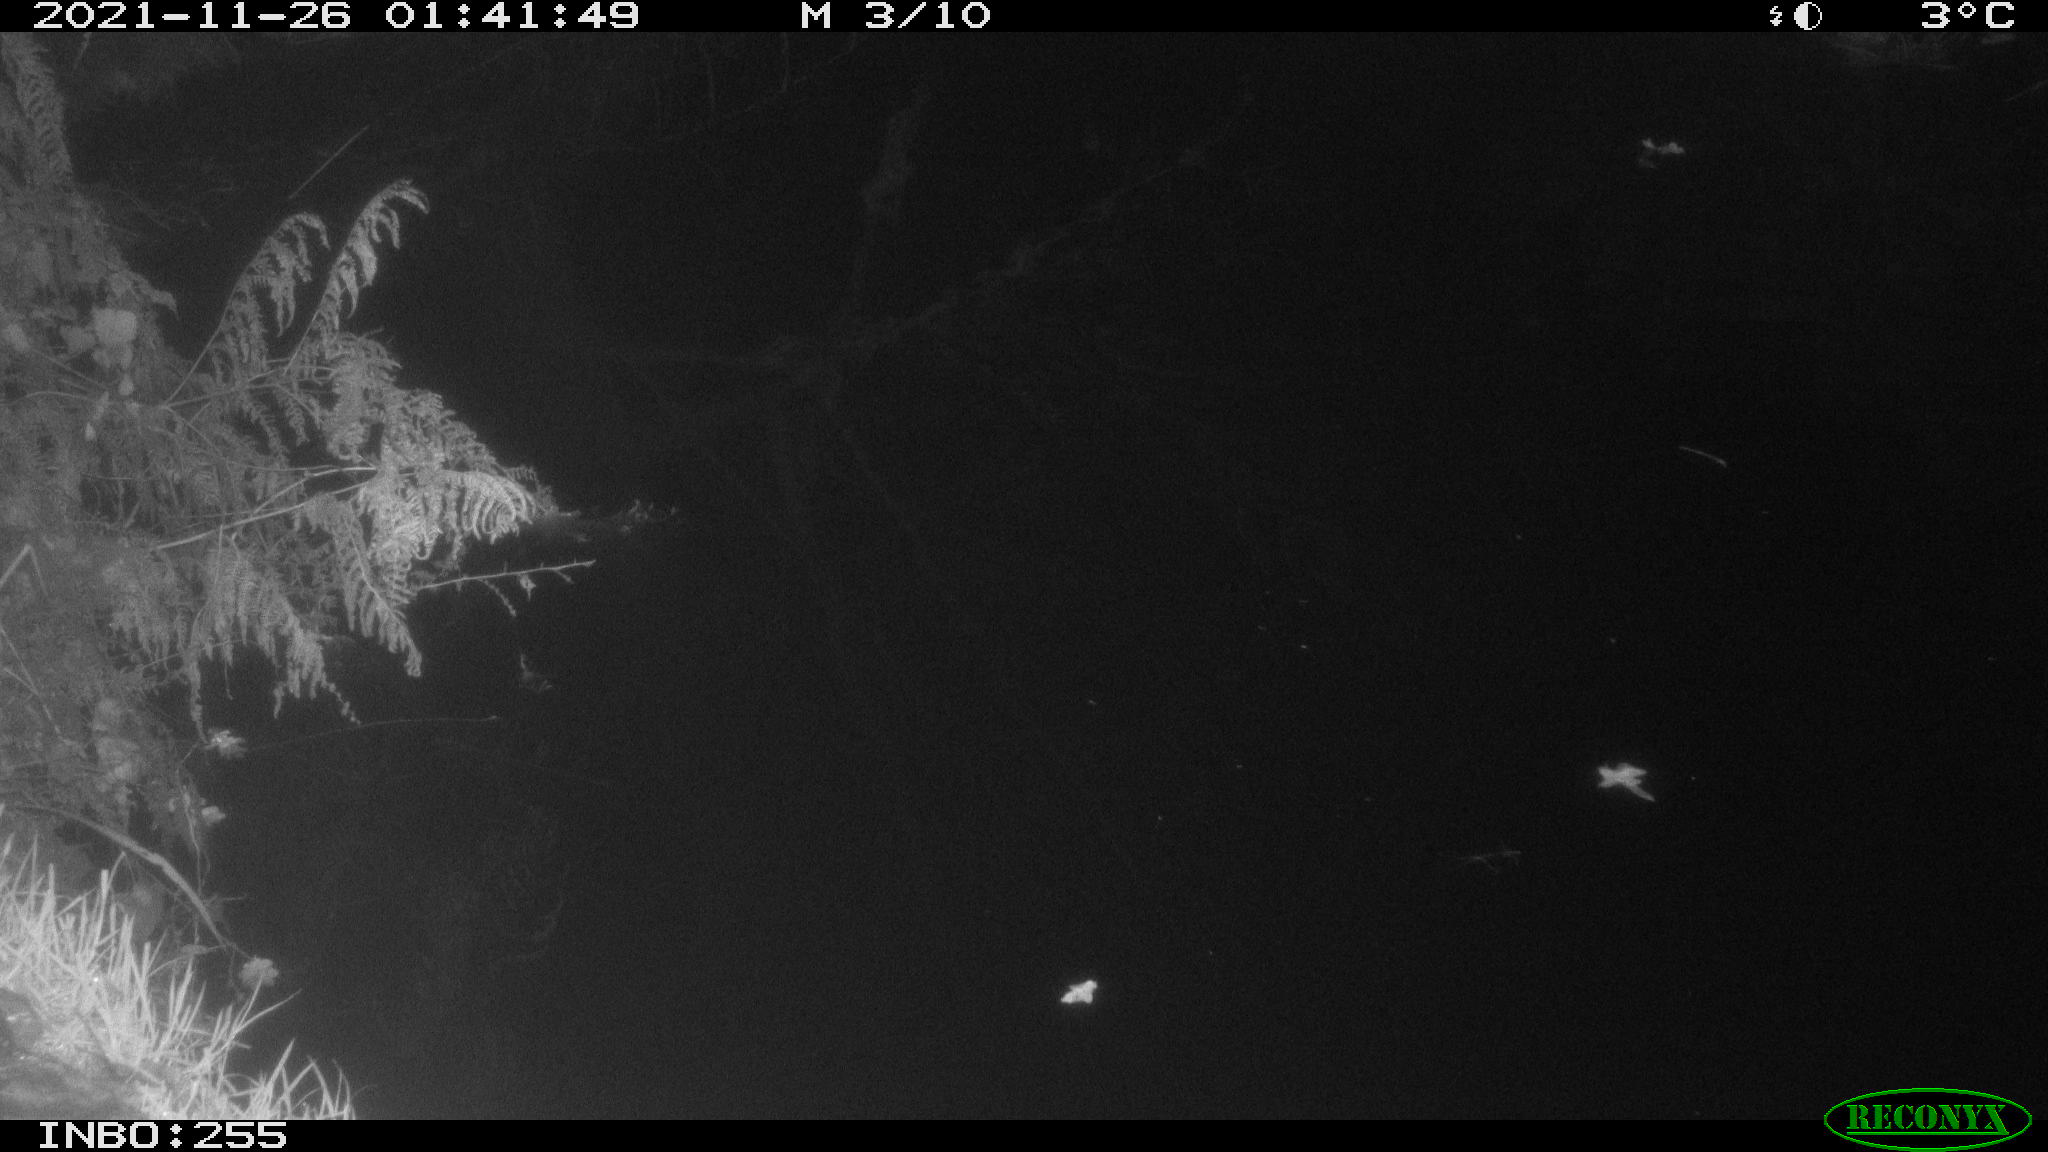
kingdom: Animalia
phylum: Chordata
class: Aves
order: Anseriformes
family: Anatidae
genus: Anas
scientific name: Anas platyrhynchos
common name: Mallard
